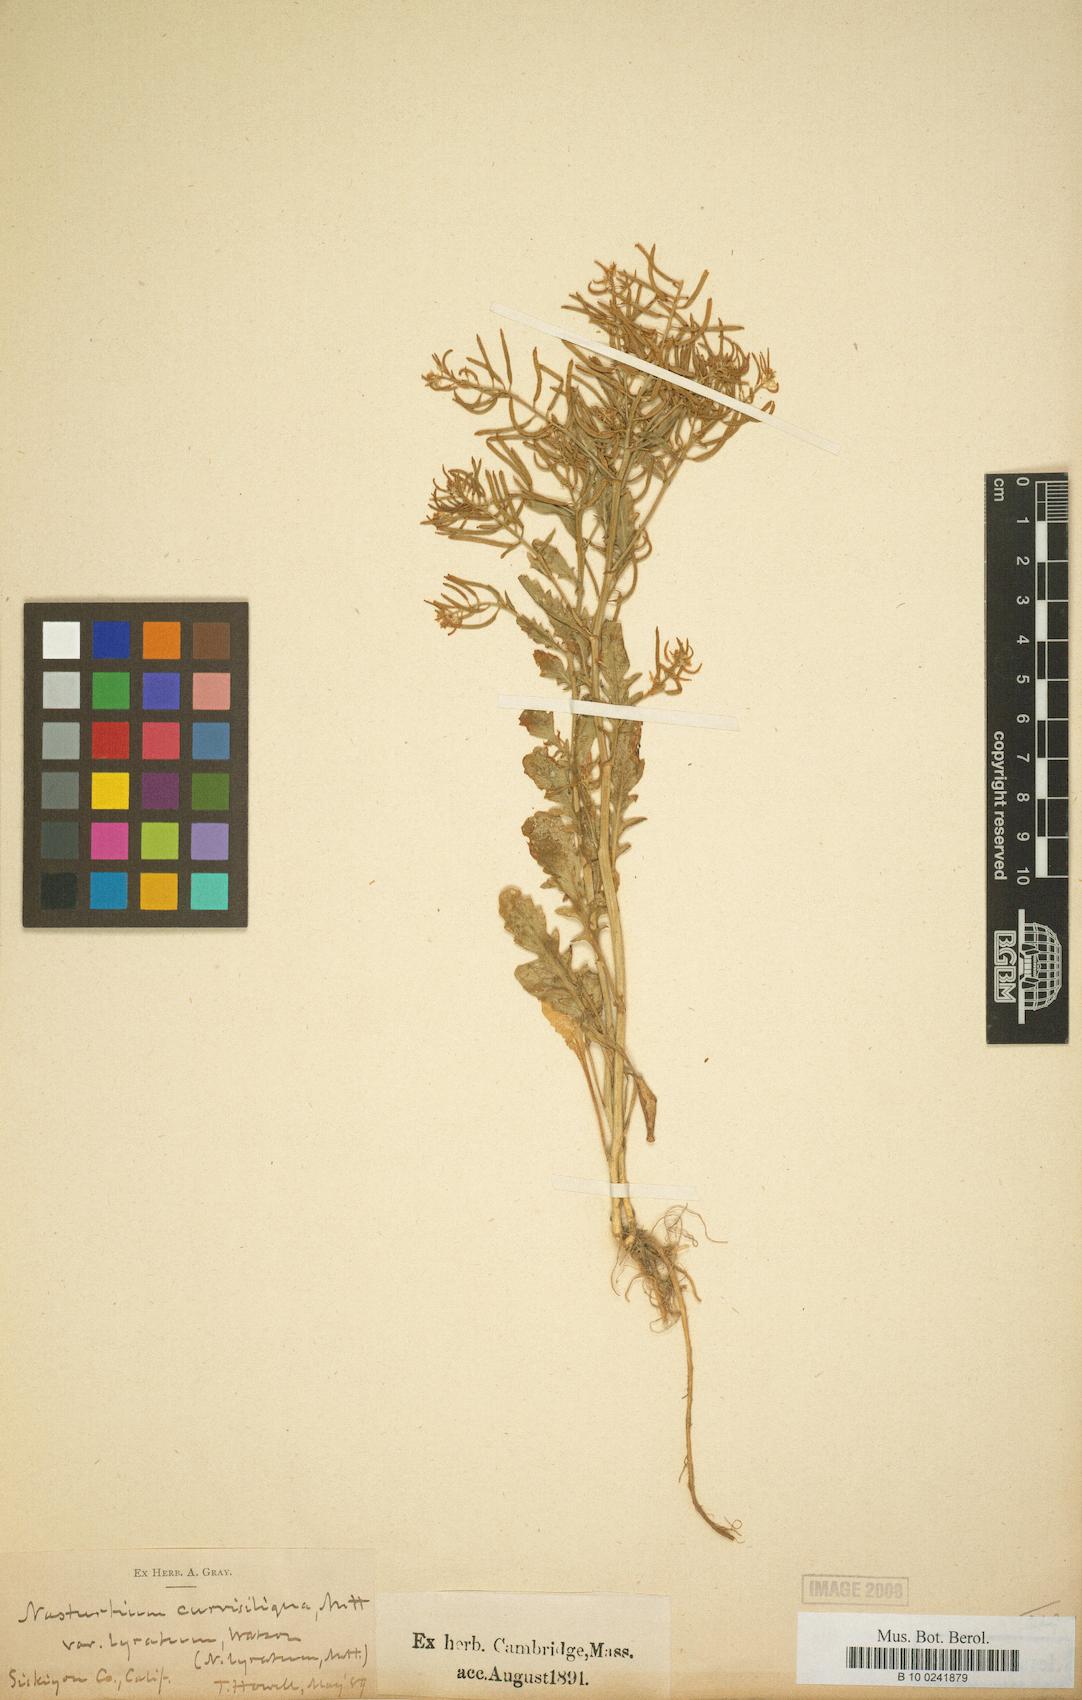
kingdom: Plantae
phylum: Tracheophyta
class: Magnoliopsida
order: Brassicales
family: Brassicaceae
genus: Rorippa
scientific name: Rorippa curvisiliqua
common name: Curve-pod yellow cress
